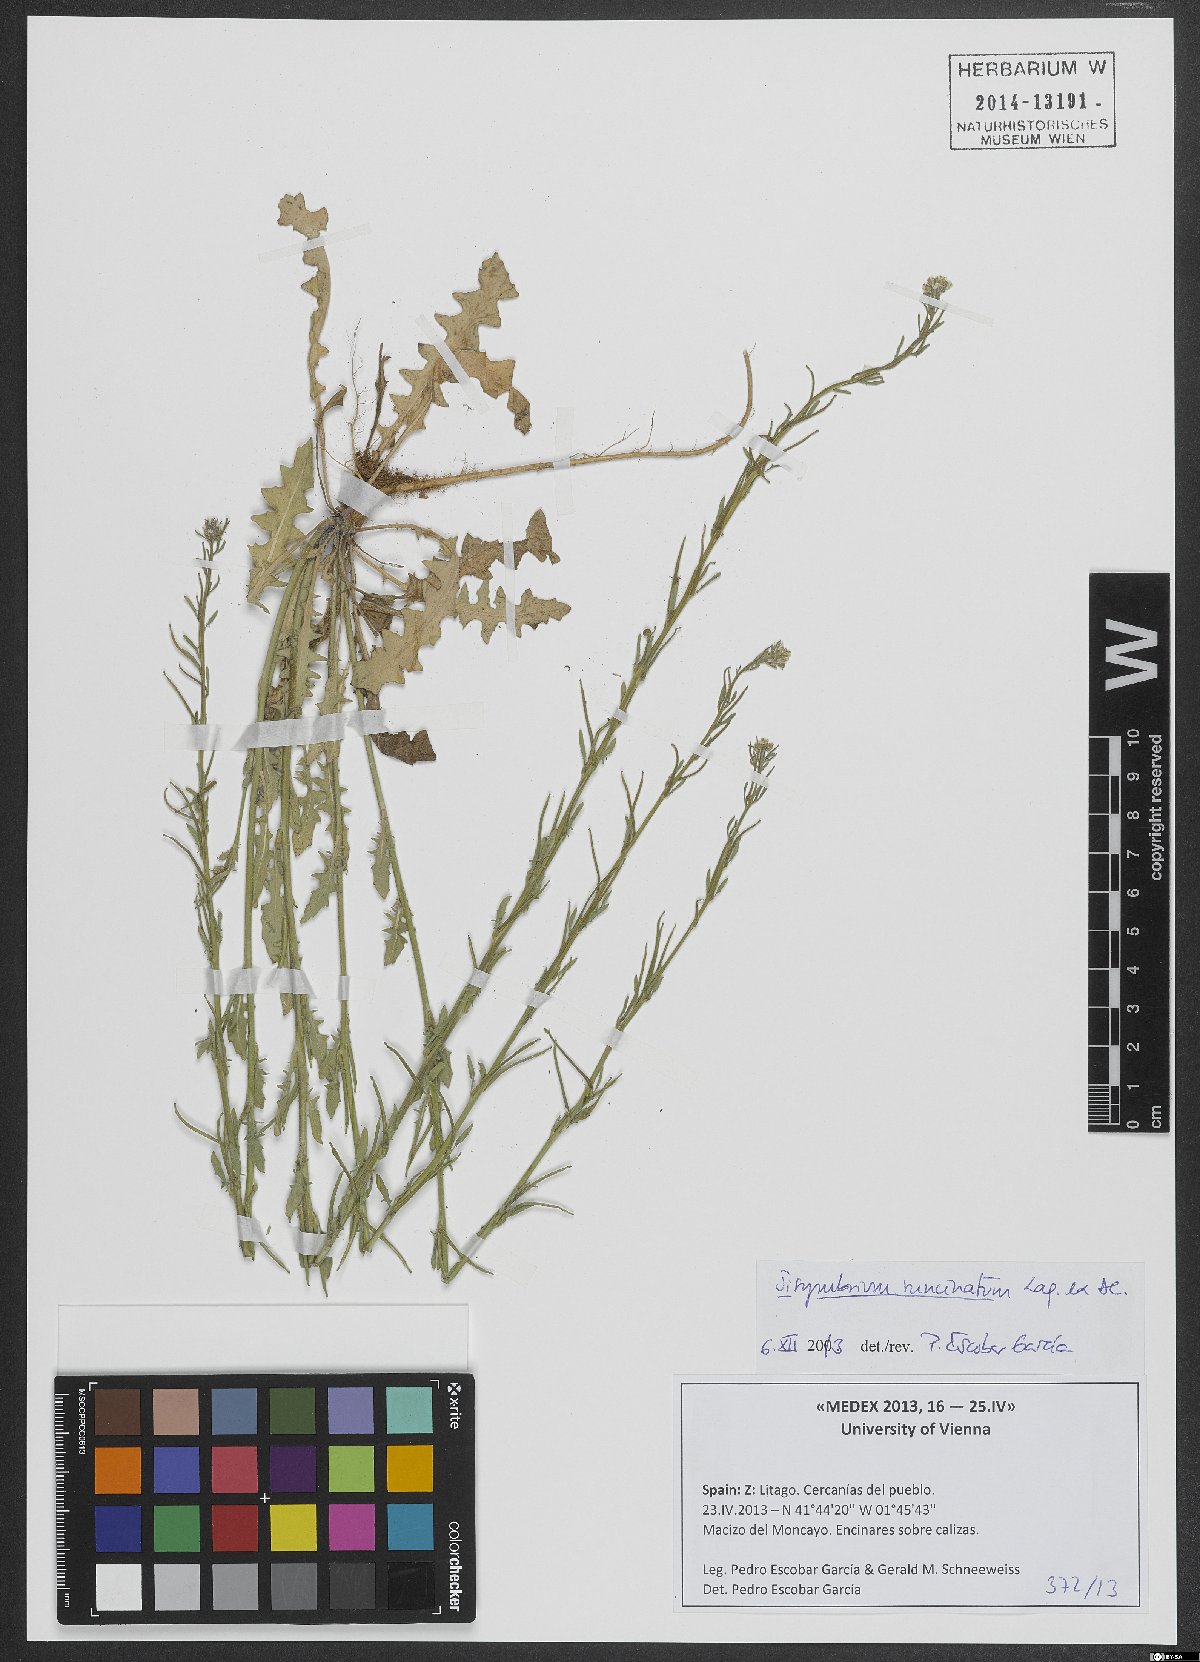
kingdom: Plantae
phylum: Tracheophyta
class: Magnoliopsida
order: Brassicales
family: Brassicaceae
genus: Sisymbrium
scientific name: Sisymbrium runcinatum
